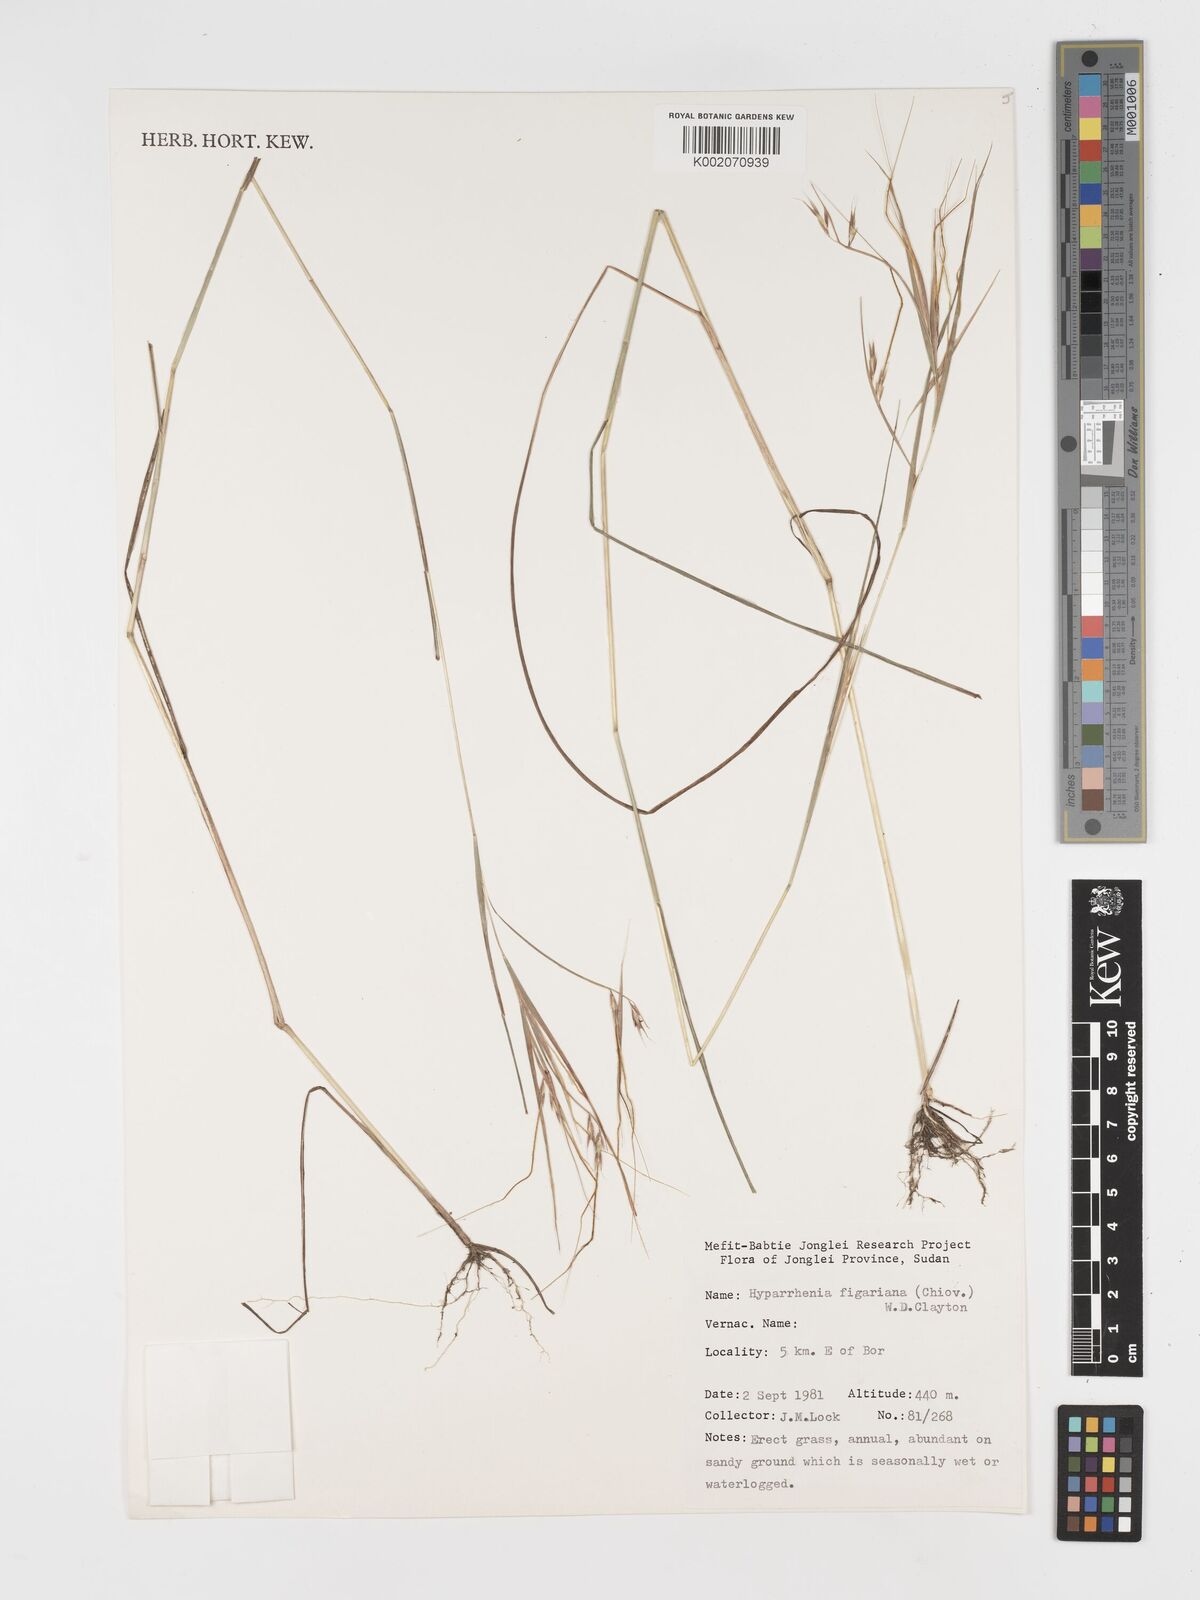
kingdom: Plantae
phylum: Tracheophyta
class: Liliopsida
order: Poales
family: Poaceae
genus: Hyparrhenia
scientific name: Hyparrhenia figariana
